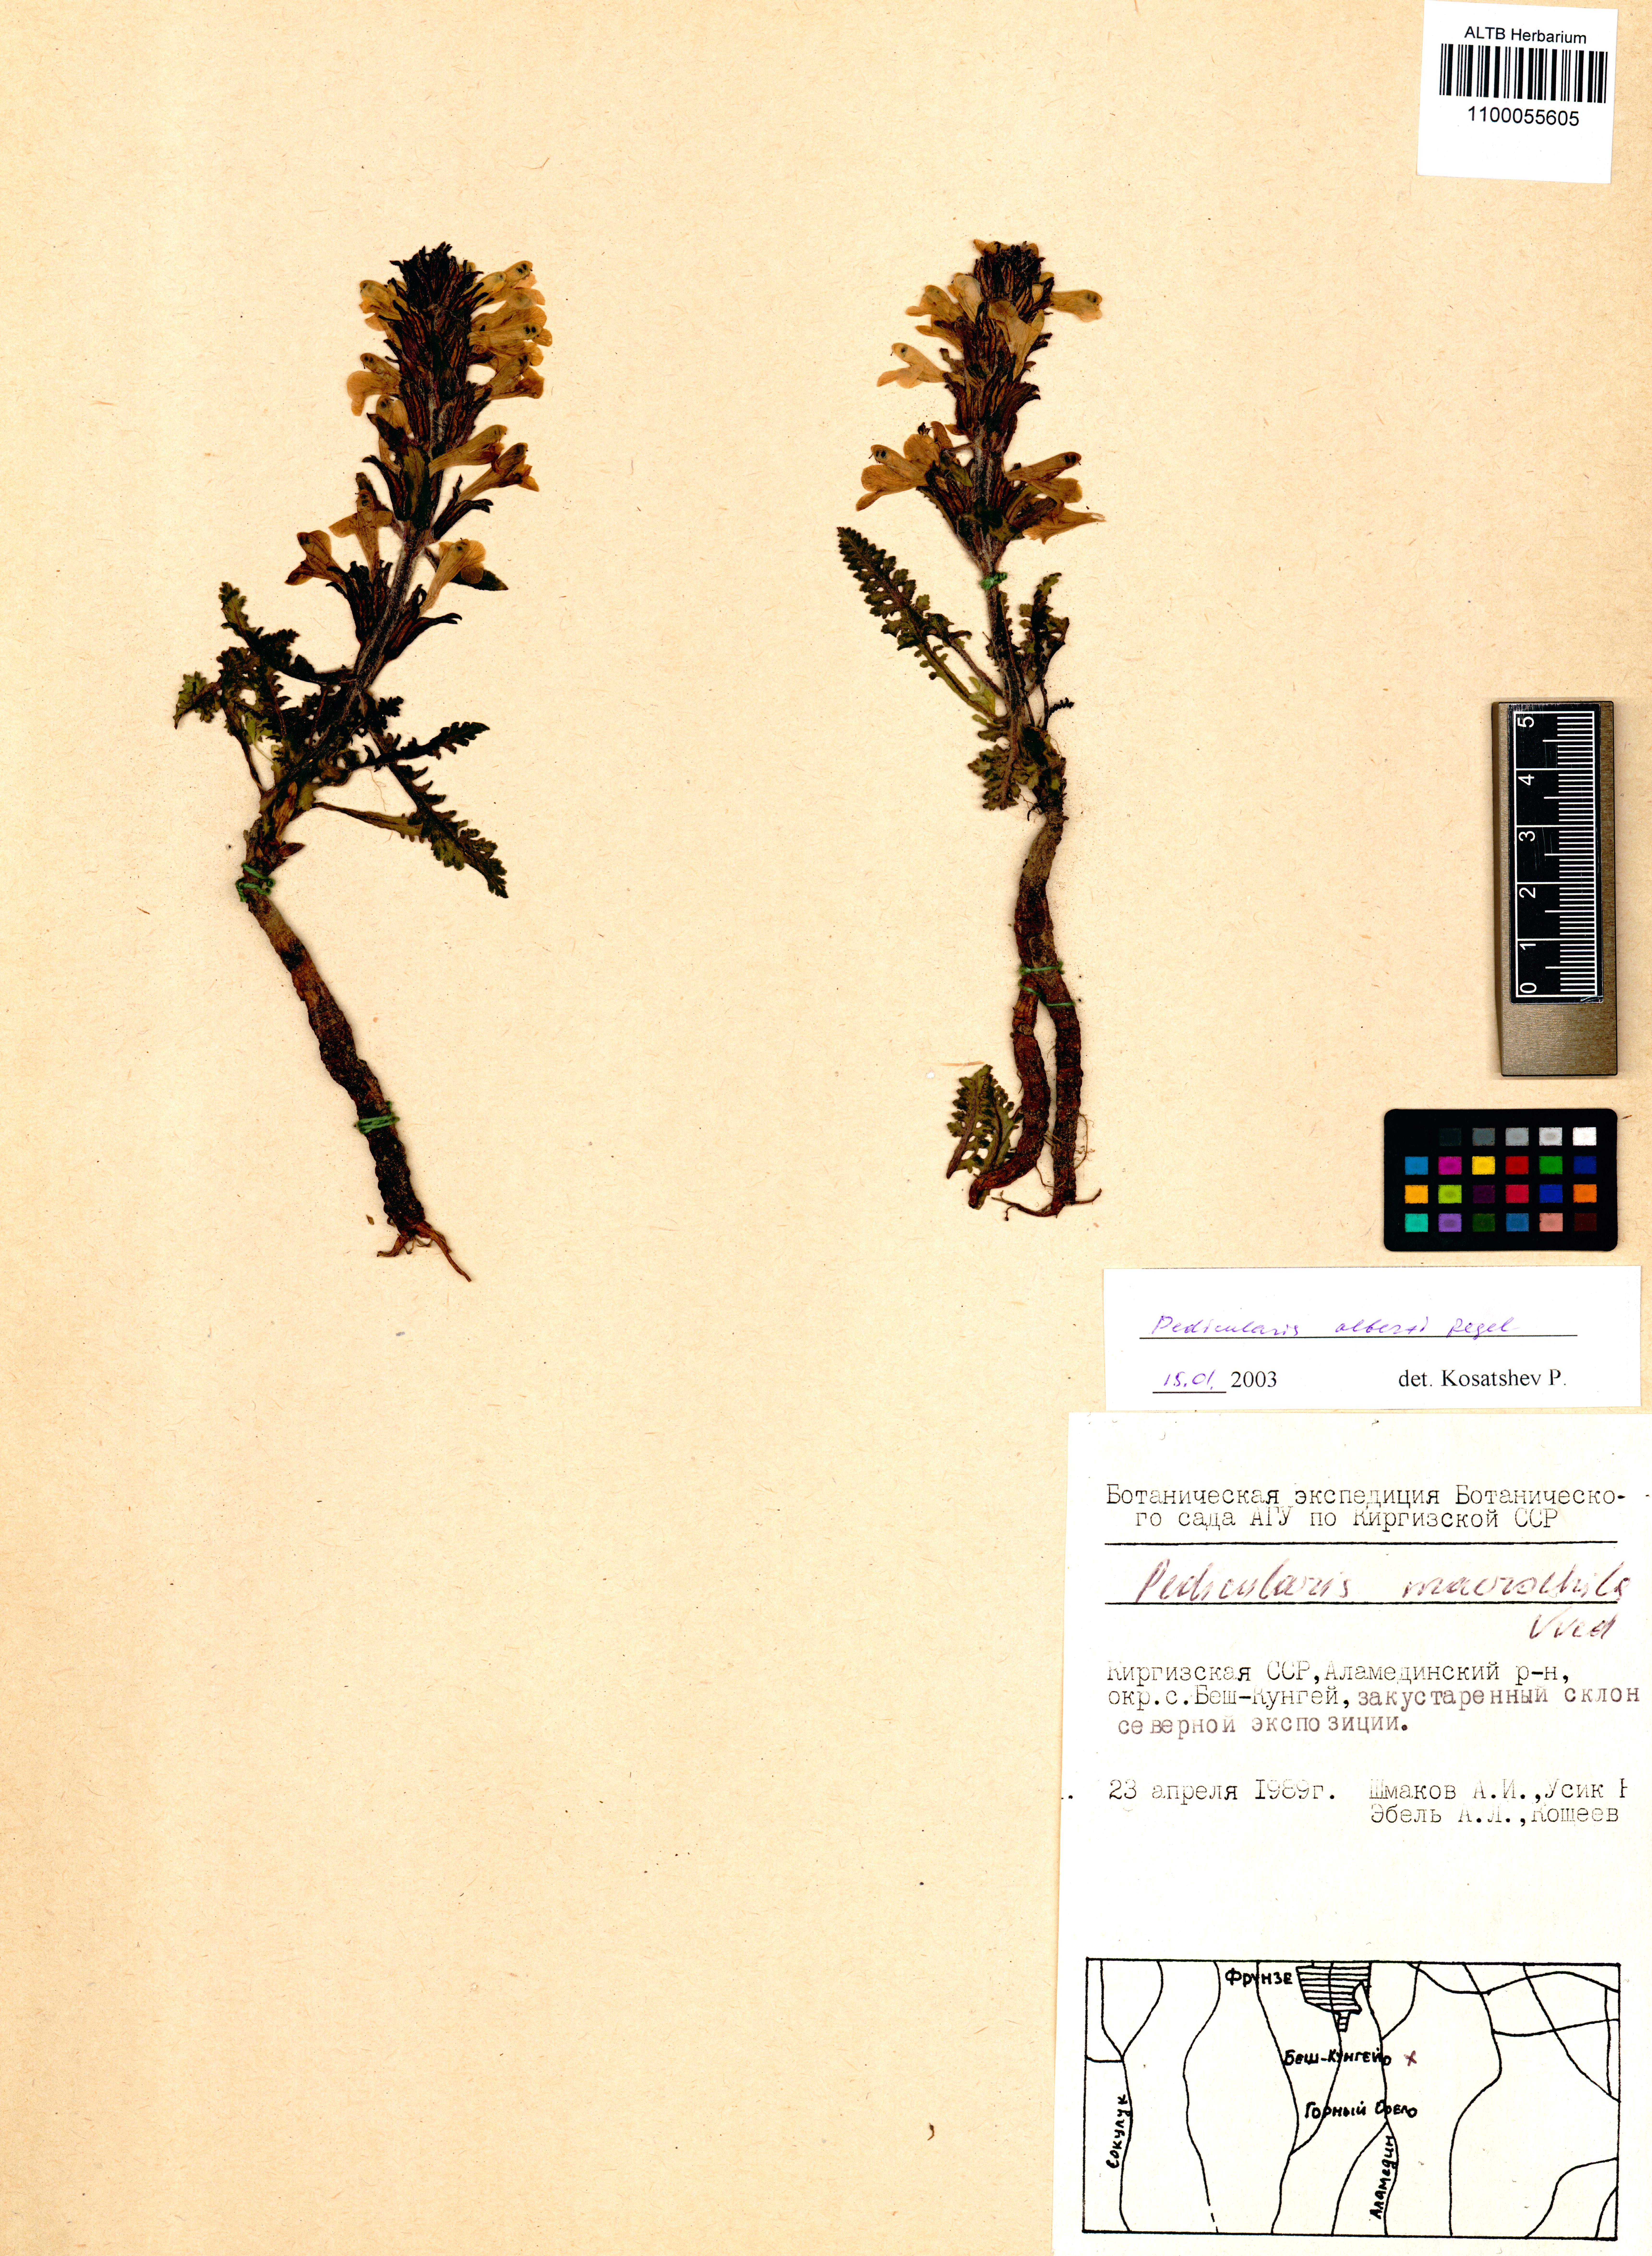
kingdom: Plantae
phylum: Tracheophyta
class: Magnoliopsida
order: Lamiales
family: Orobanchaceae
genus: Pedicularis
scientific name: Pedicularis alberti
